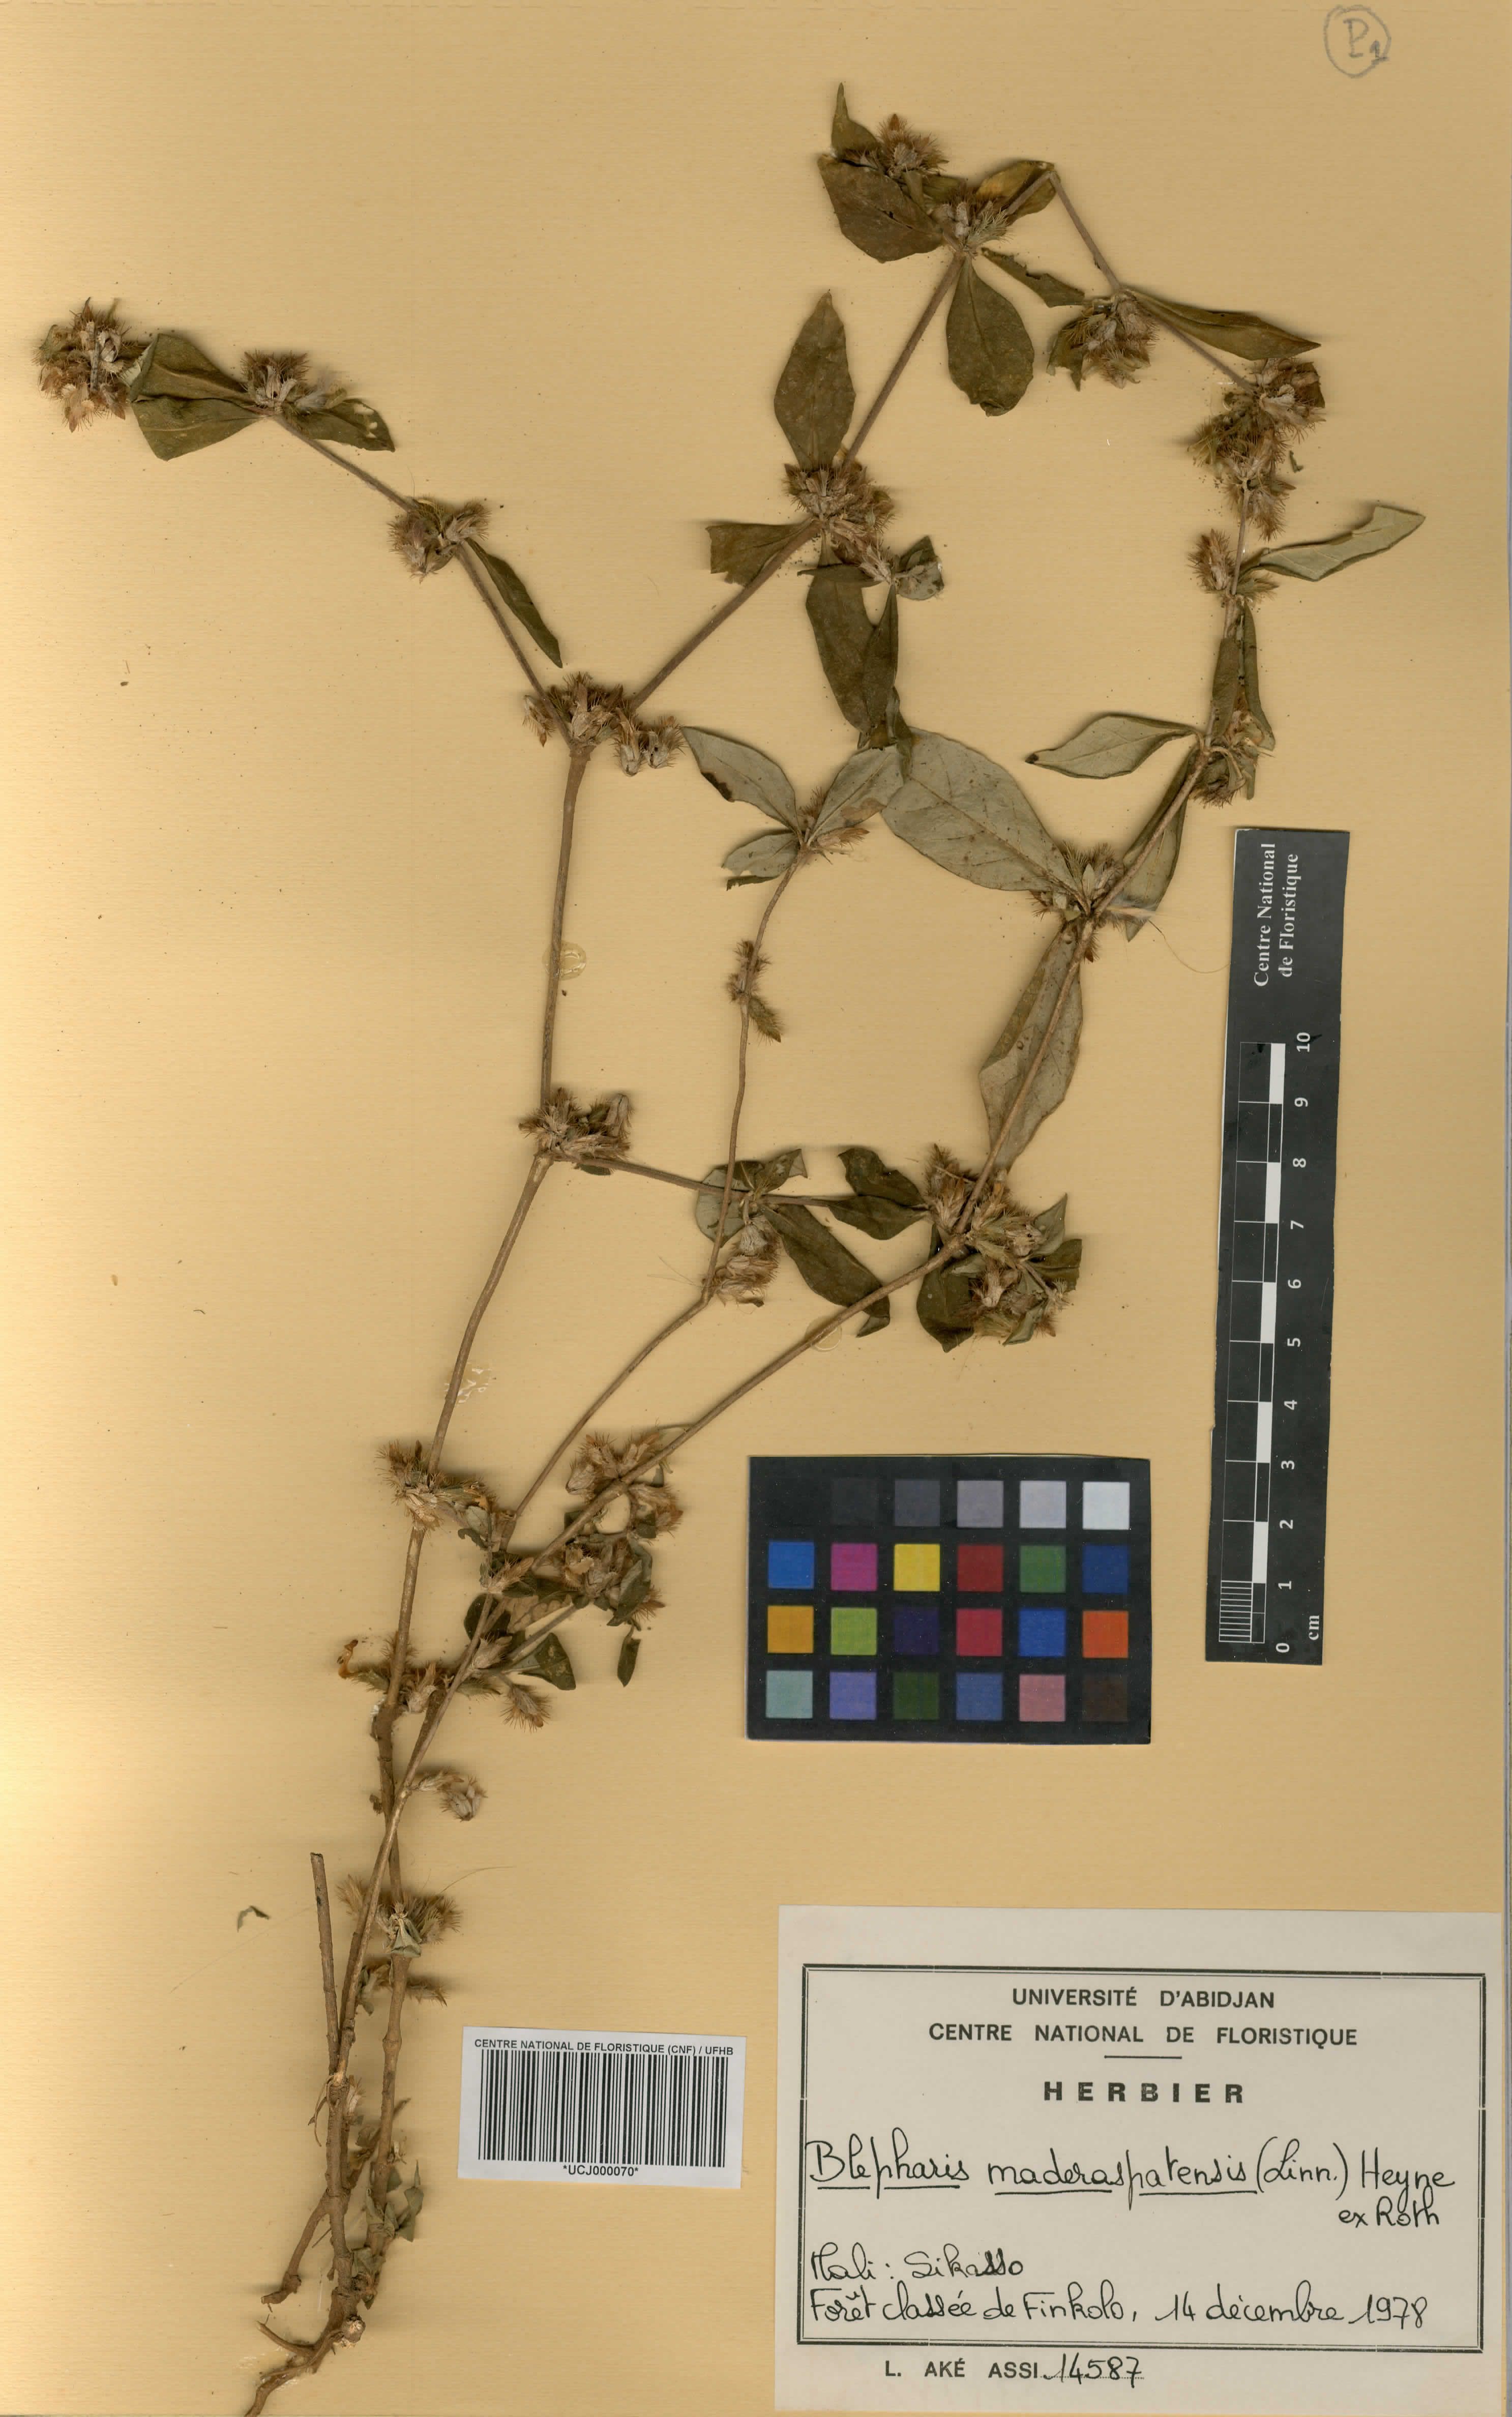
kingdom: Plantae
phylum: Tracheophyta
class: Magnoliopsida
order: Lamiales
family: Acanthaceae
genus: Blepharis
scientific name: Blepharis maderaspatensis
